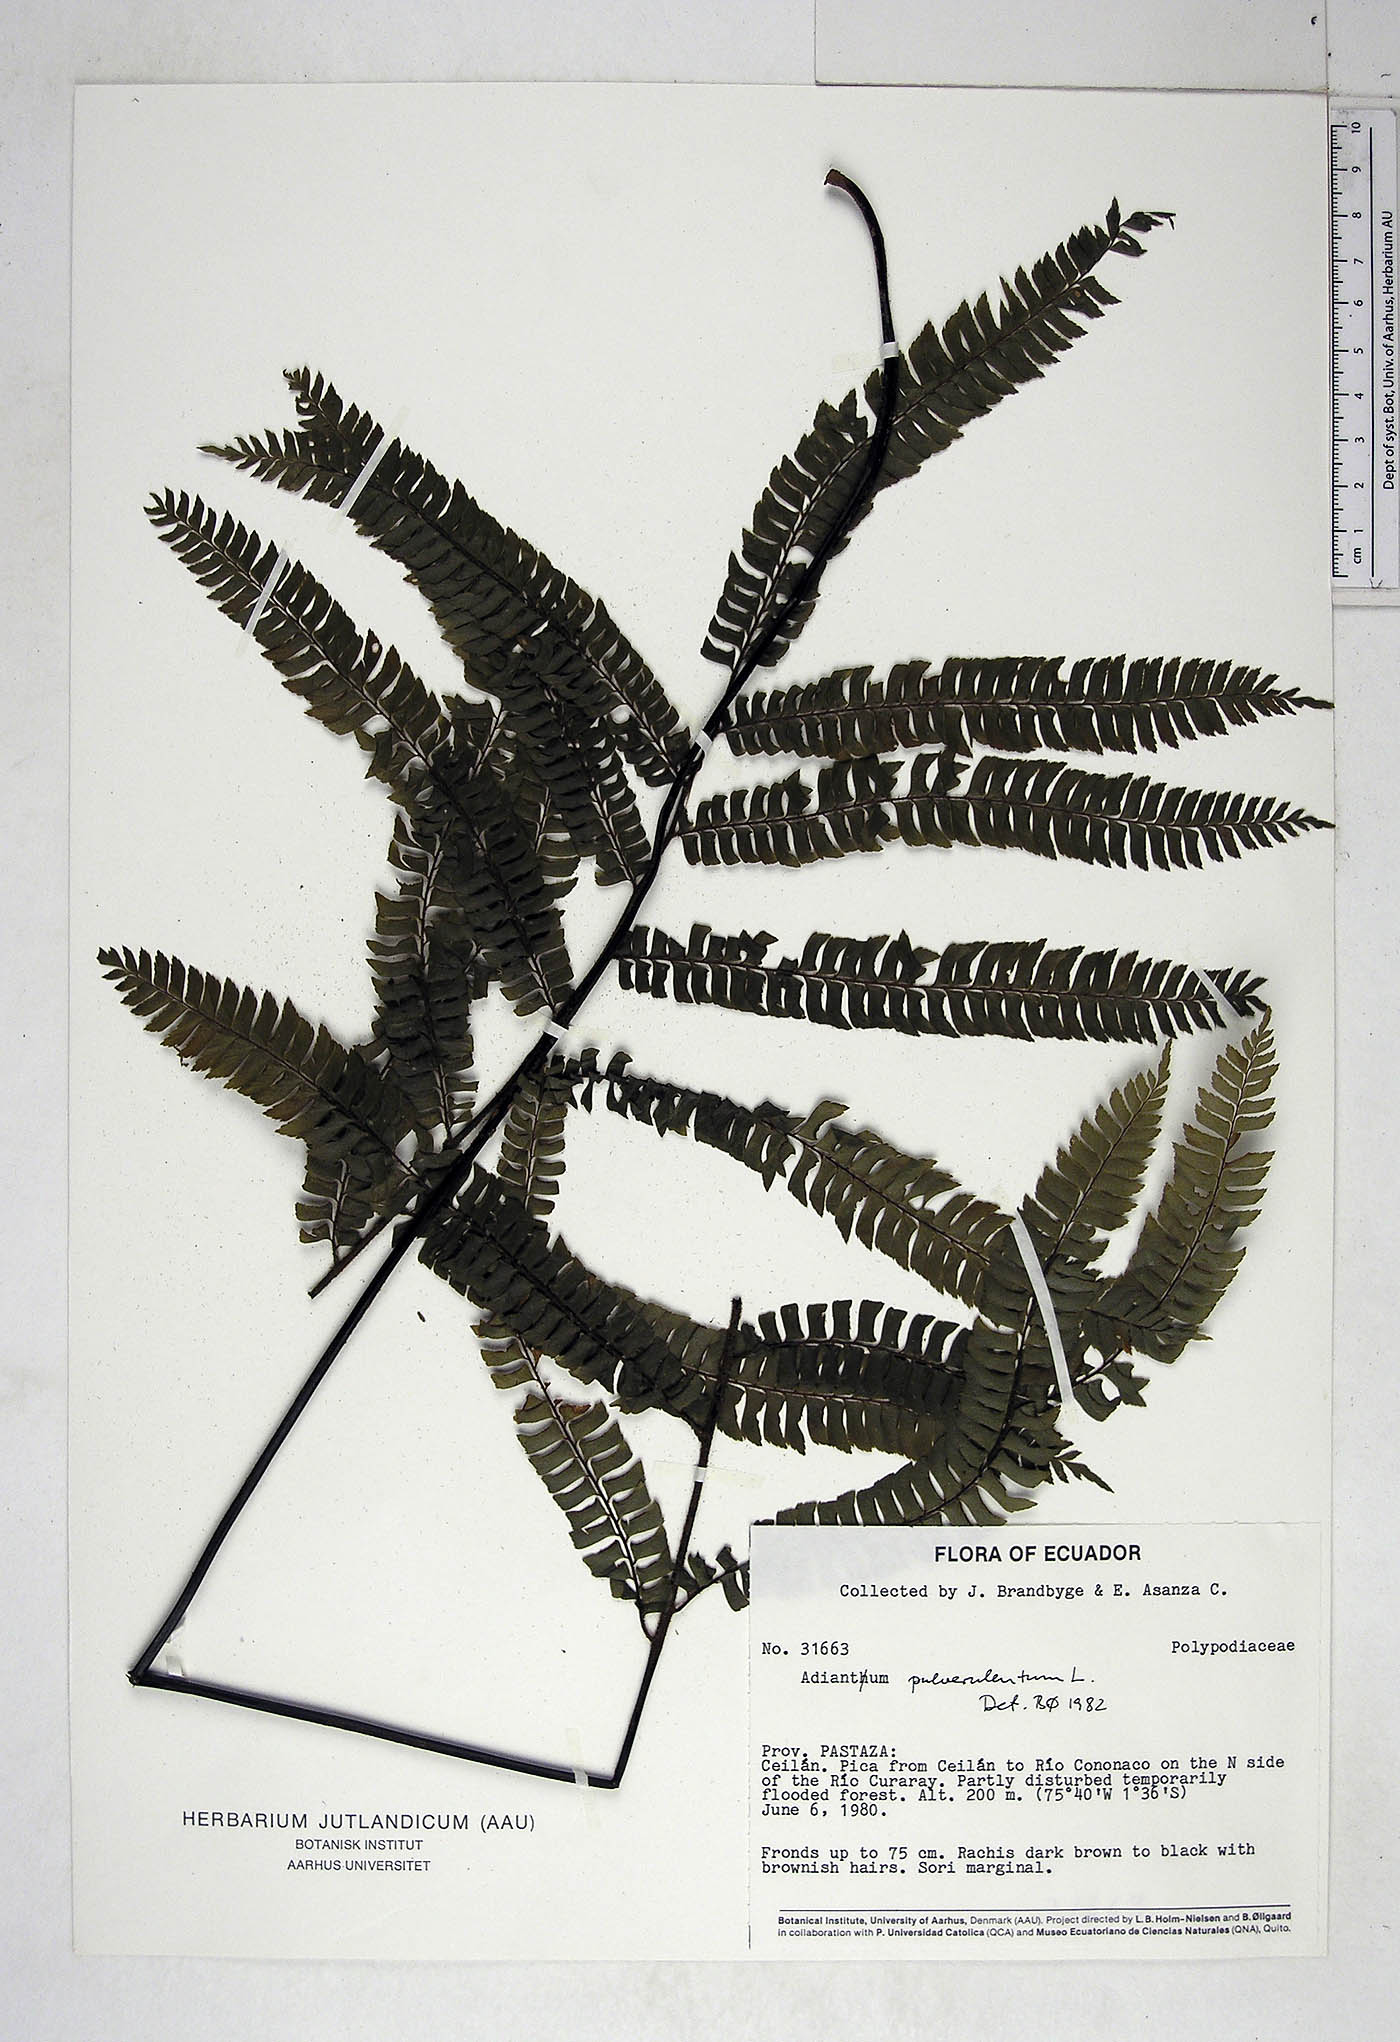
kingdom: Plantae
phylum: Tracheophyta
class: Polypodiopsida
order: Polypodiales
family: Pteridaceae
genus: Adiantum
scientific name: Adiantum pulverulentum
